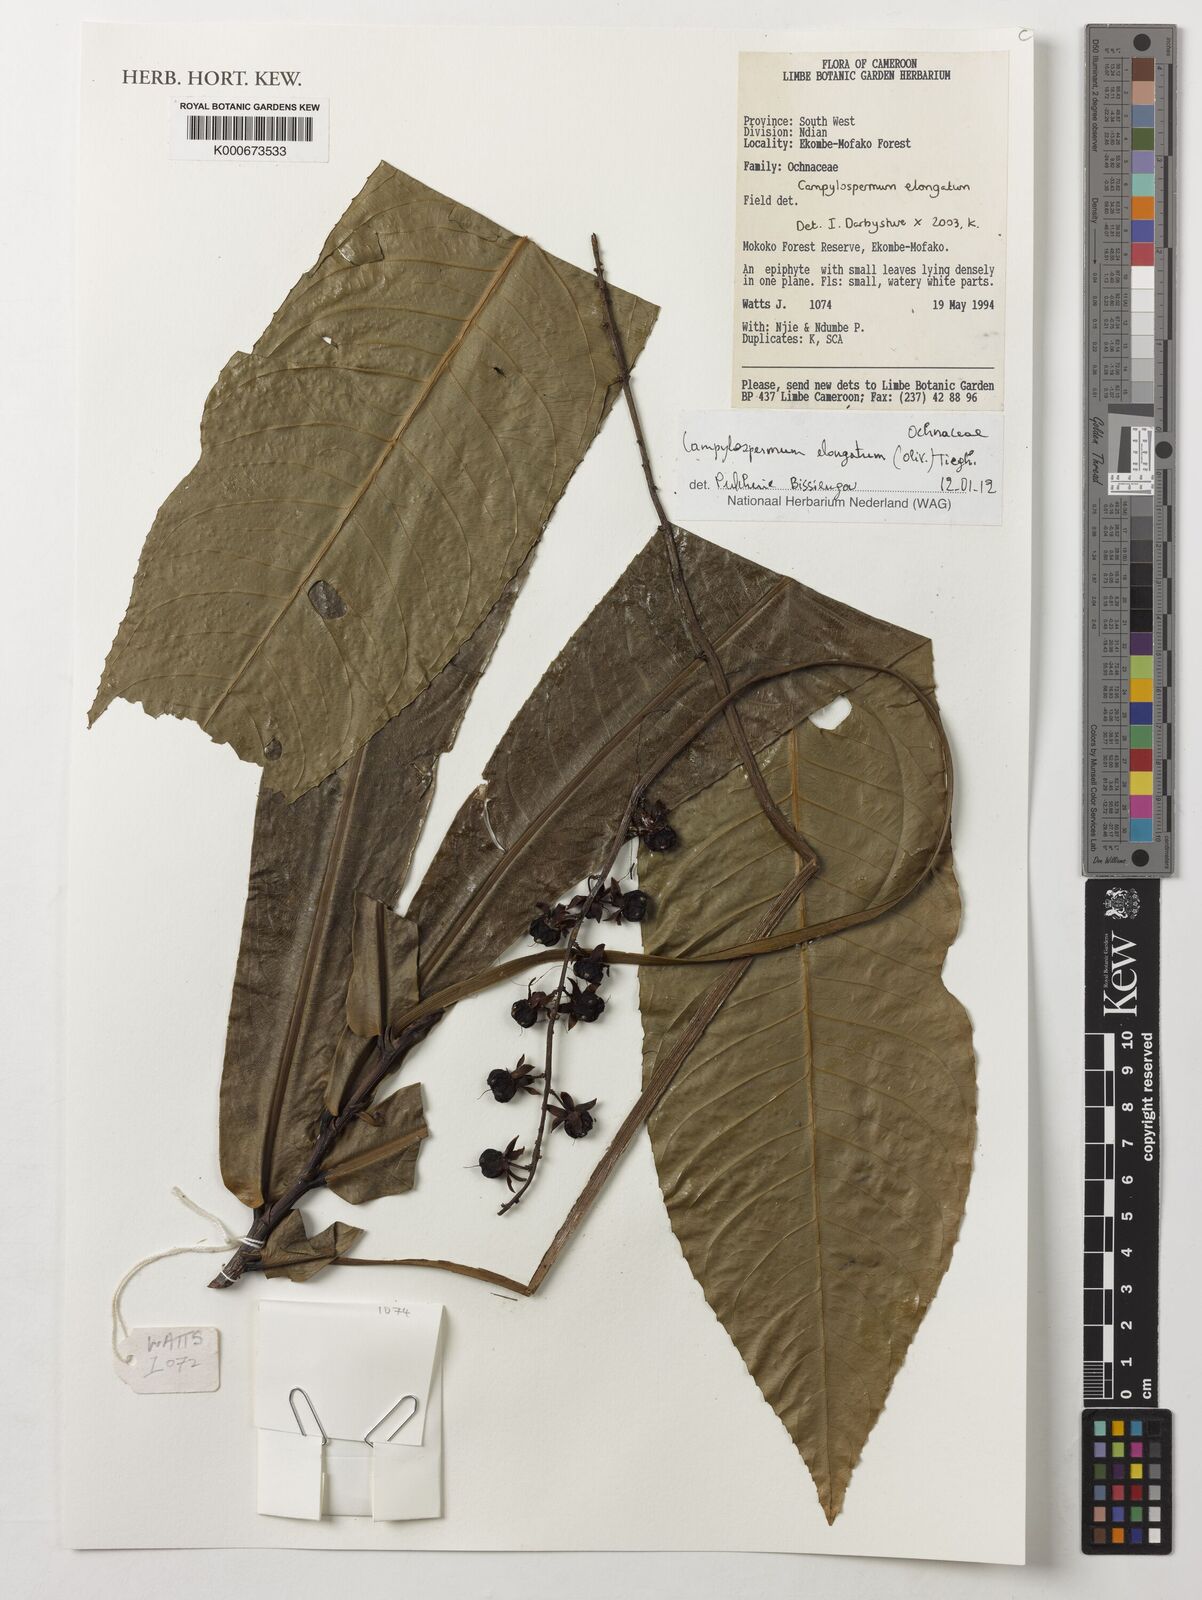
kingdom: Plantae
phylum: Tracheophyta
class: Magnoliopsida
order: Malpighiales
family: Ochnaceae
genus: Gomphia
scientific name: Gomphia elongata
